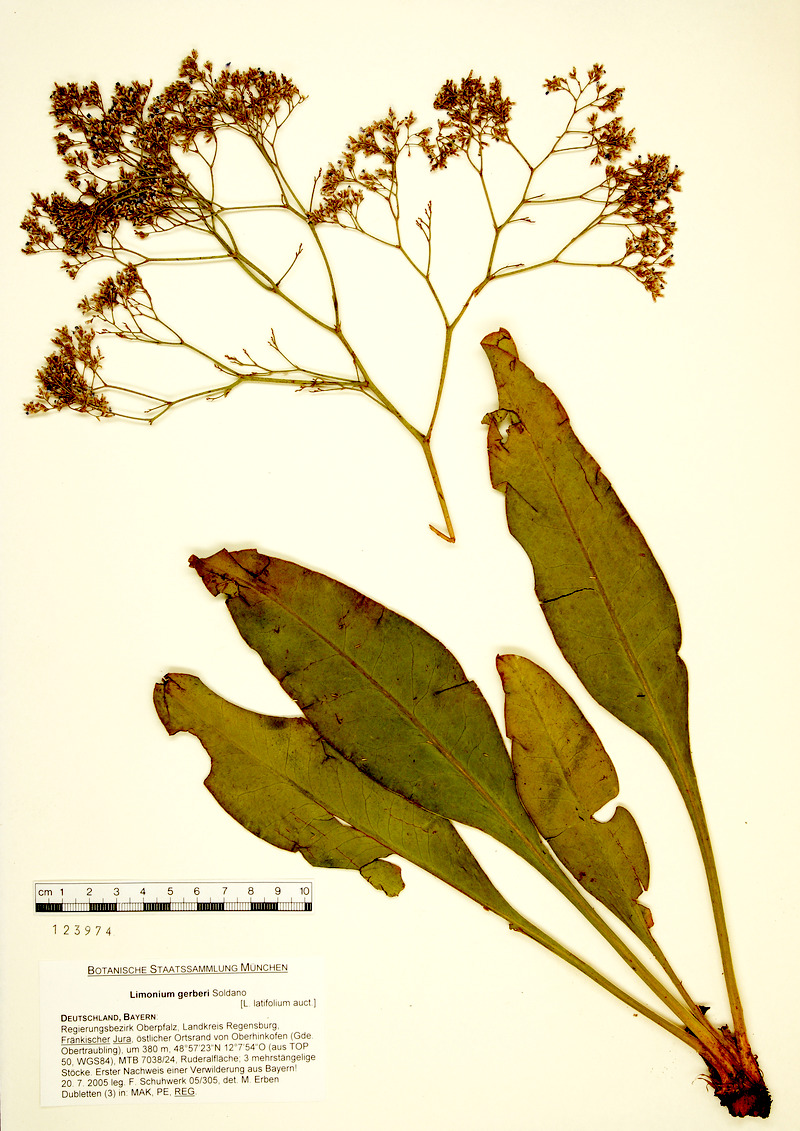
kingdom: Plantae
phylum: Tracheophyta
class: Magnoliopsida
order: Caryophyllales
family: Plumbaginaceae
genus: Limonium
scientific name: Limonium platyphyllum
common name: Florist's sea lavender
